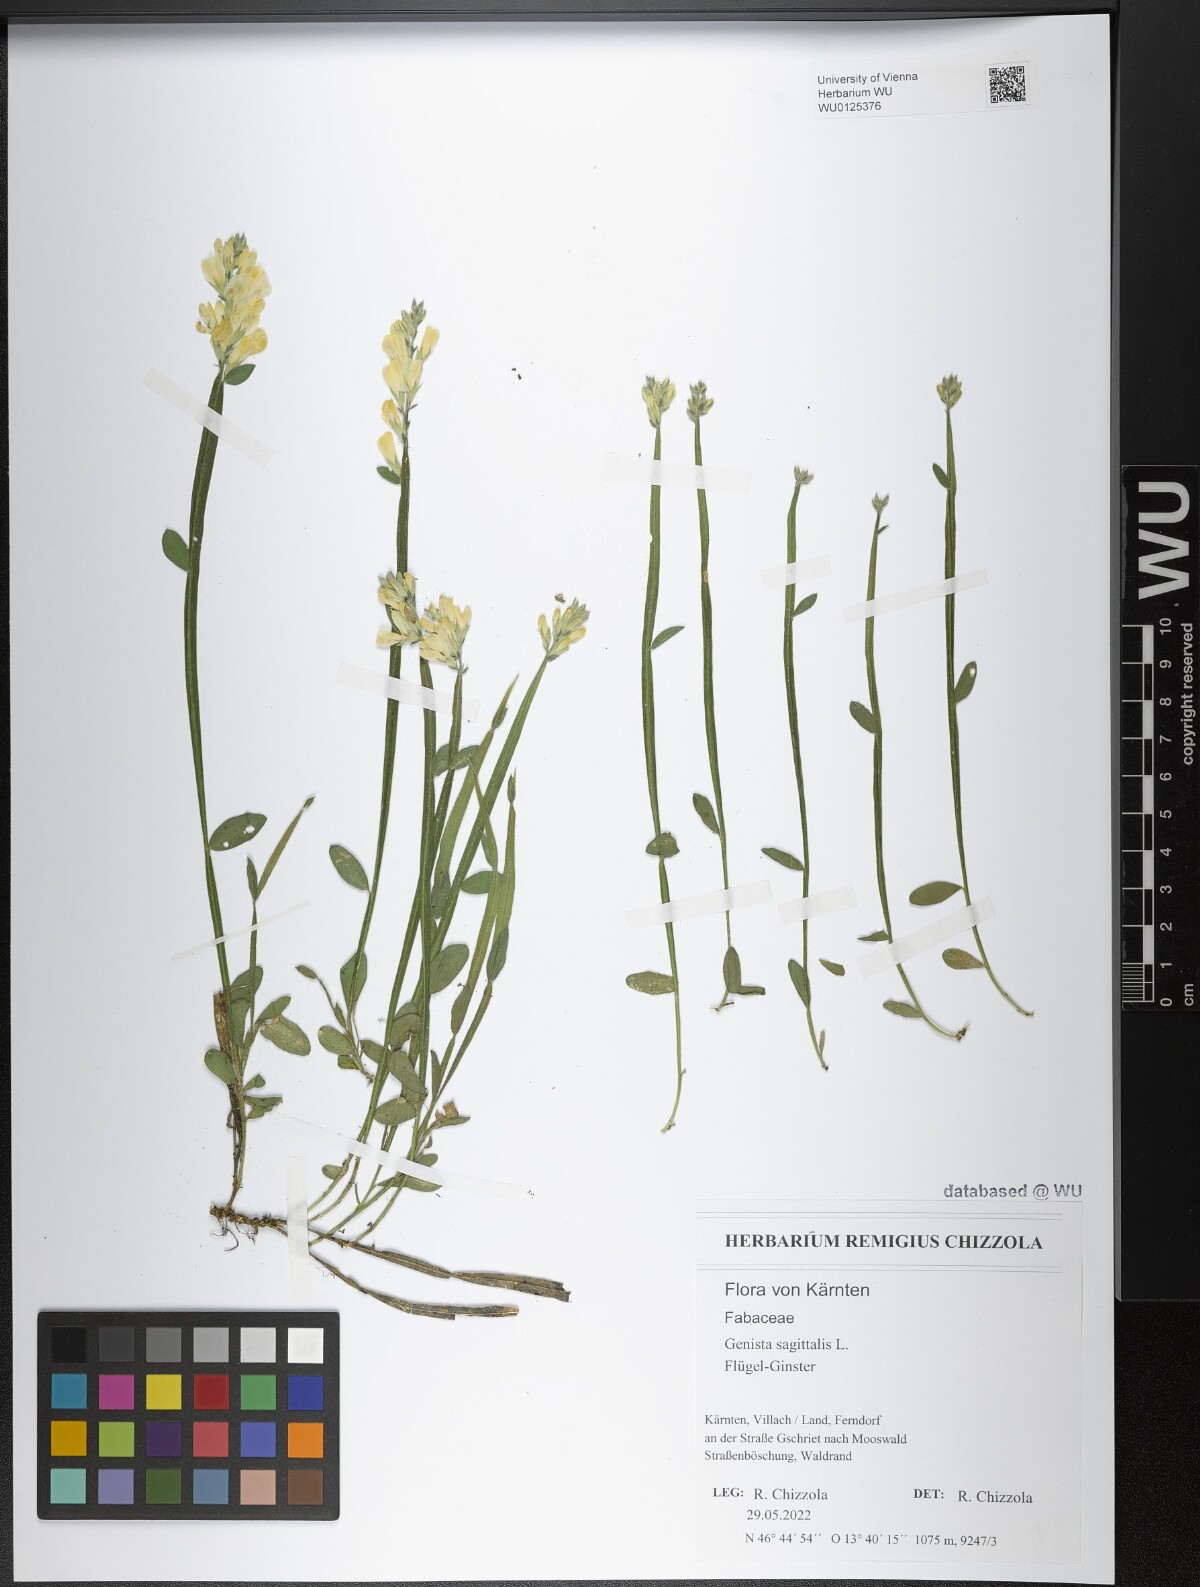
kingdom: Plantae
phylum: Tracheophyta
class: Magnoliopsida
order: Fabales
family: Fabaceae
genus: Genista
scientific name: Genista sagittalis
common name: Winged greenweed
